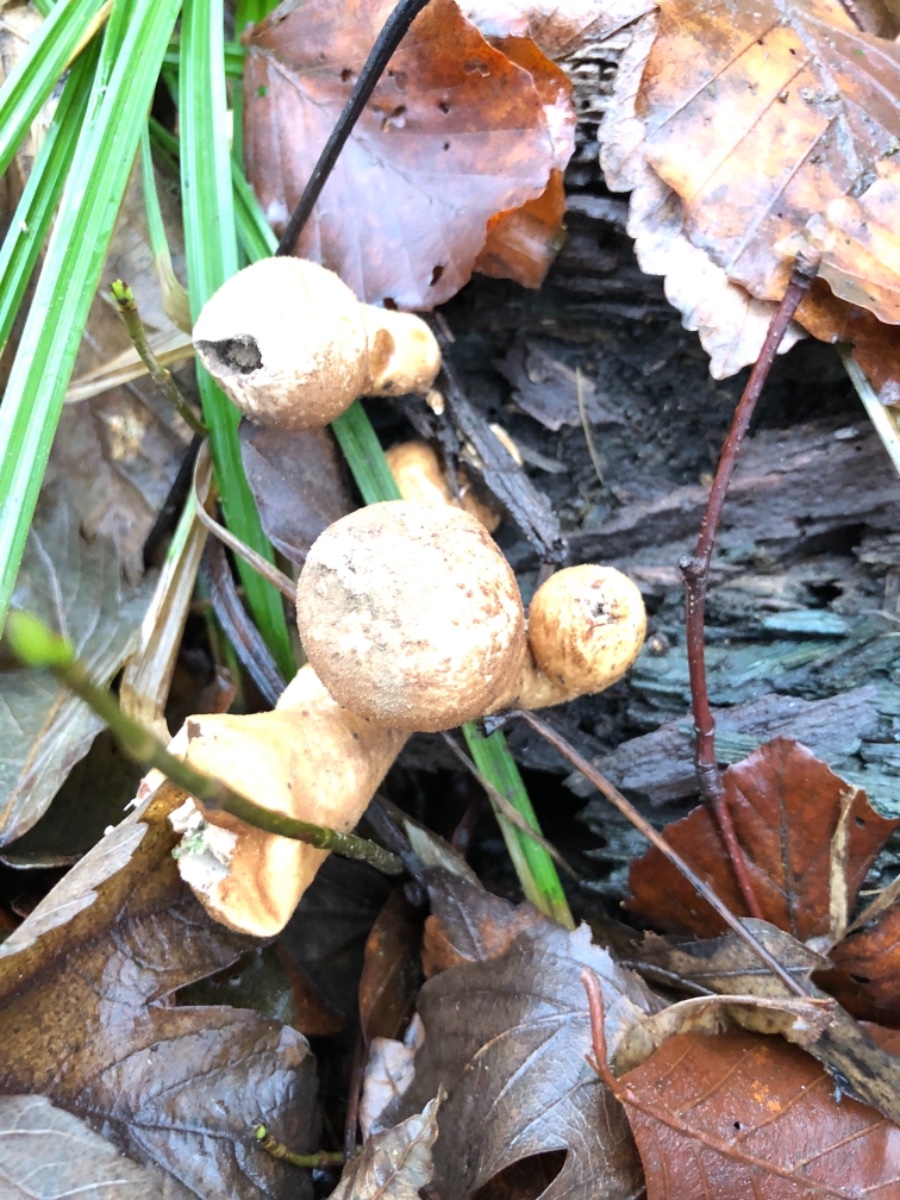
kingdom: Fungi
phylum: Basidiomycota
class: Agaricomycetes
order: Agaricales
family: Lycoperdaceae
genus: Apioperdon
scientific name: Apioperdon pyriforme
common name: pære-støvbold
